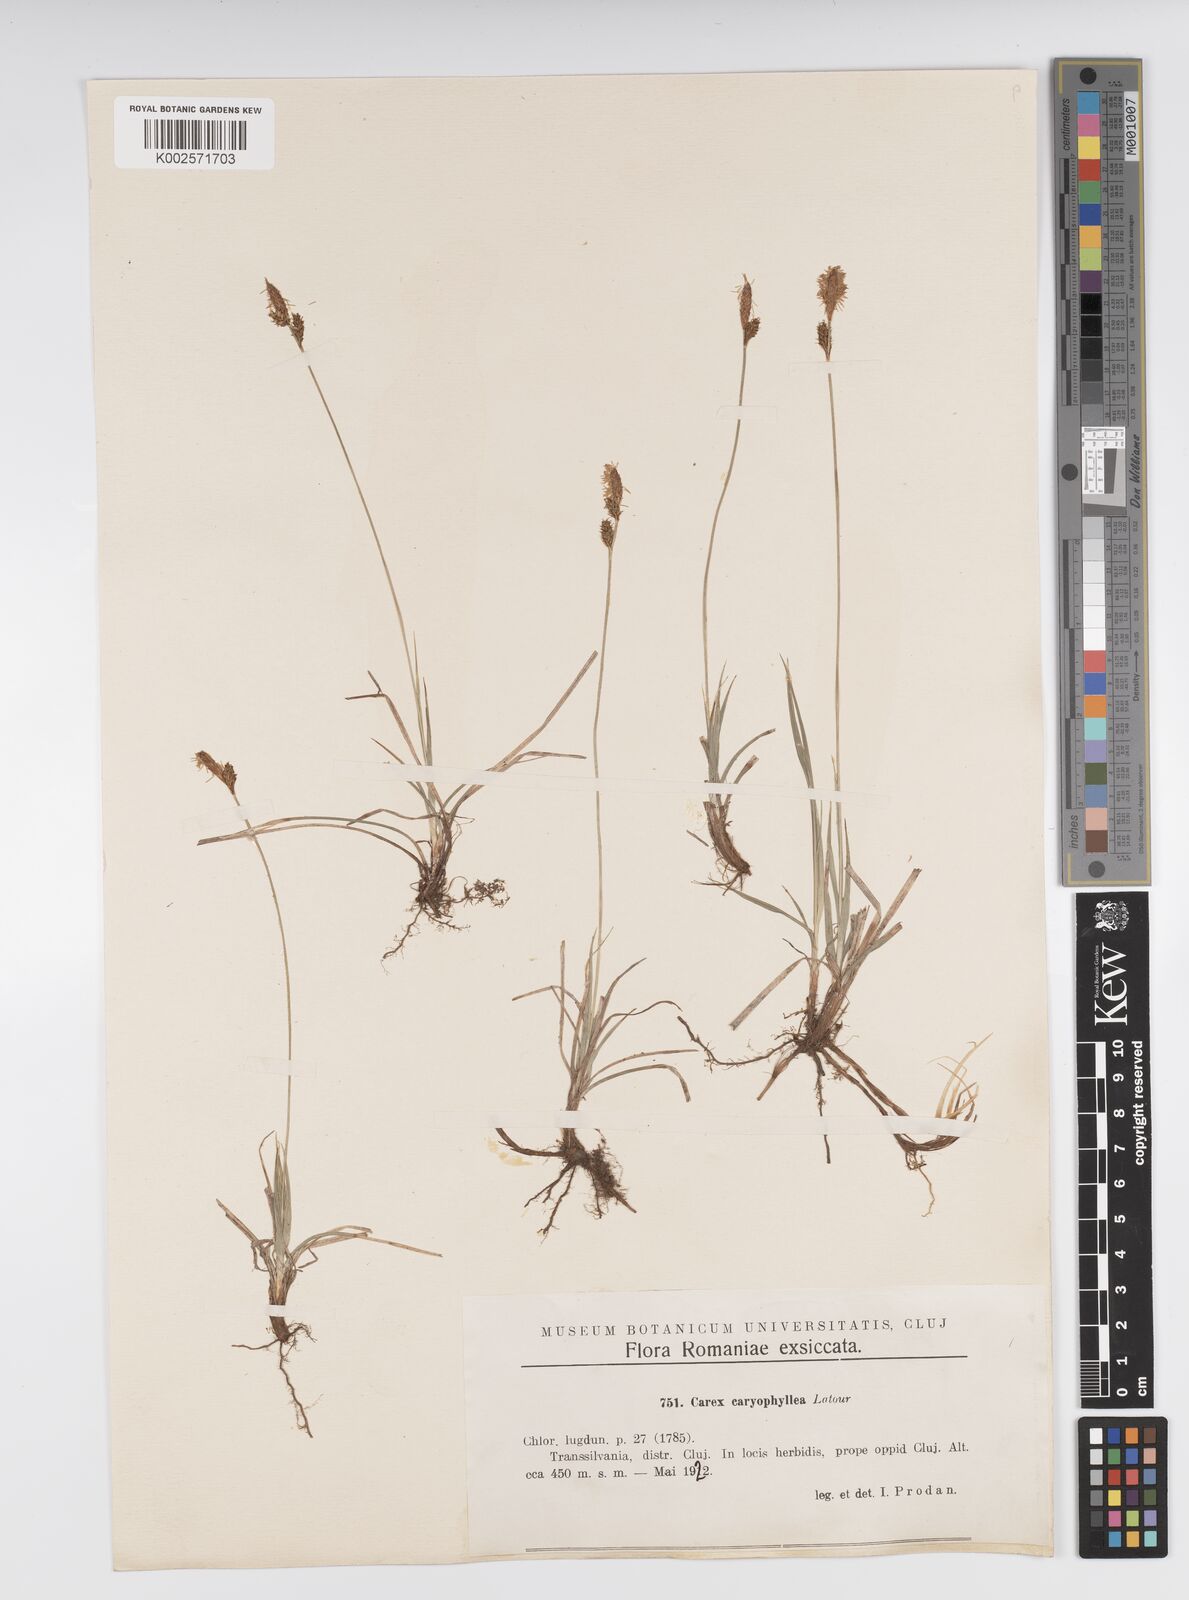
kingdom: Plantae
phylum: Tracheophyta
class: Liliopsida
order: Poales
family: Cyperaceae
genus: Carex
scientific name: Carex caryophyllea
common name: Spring sedge
